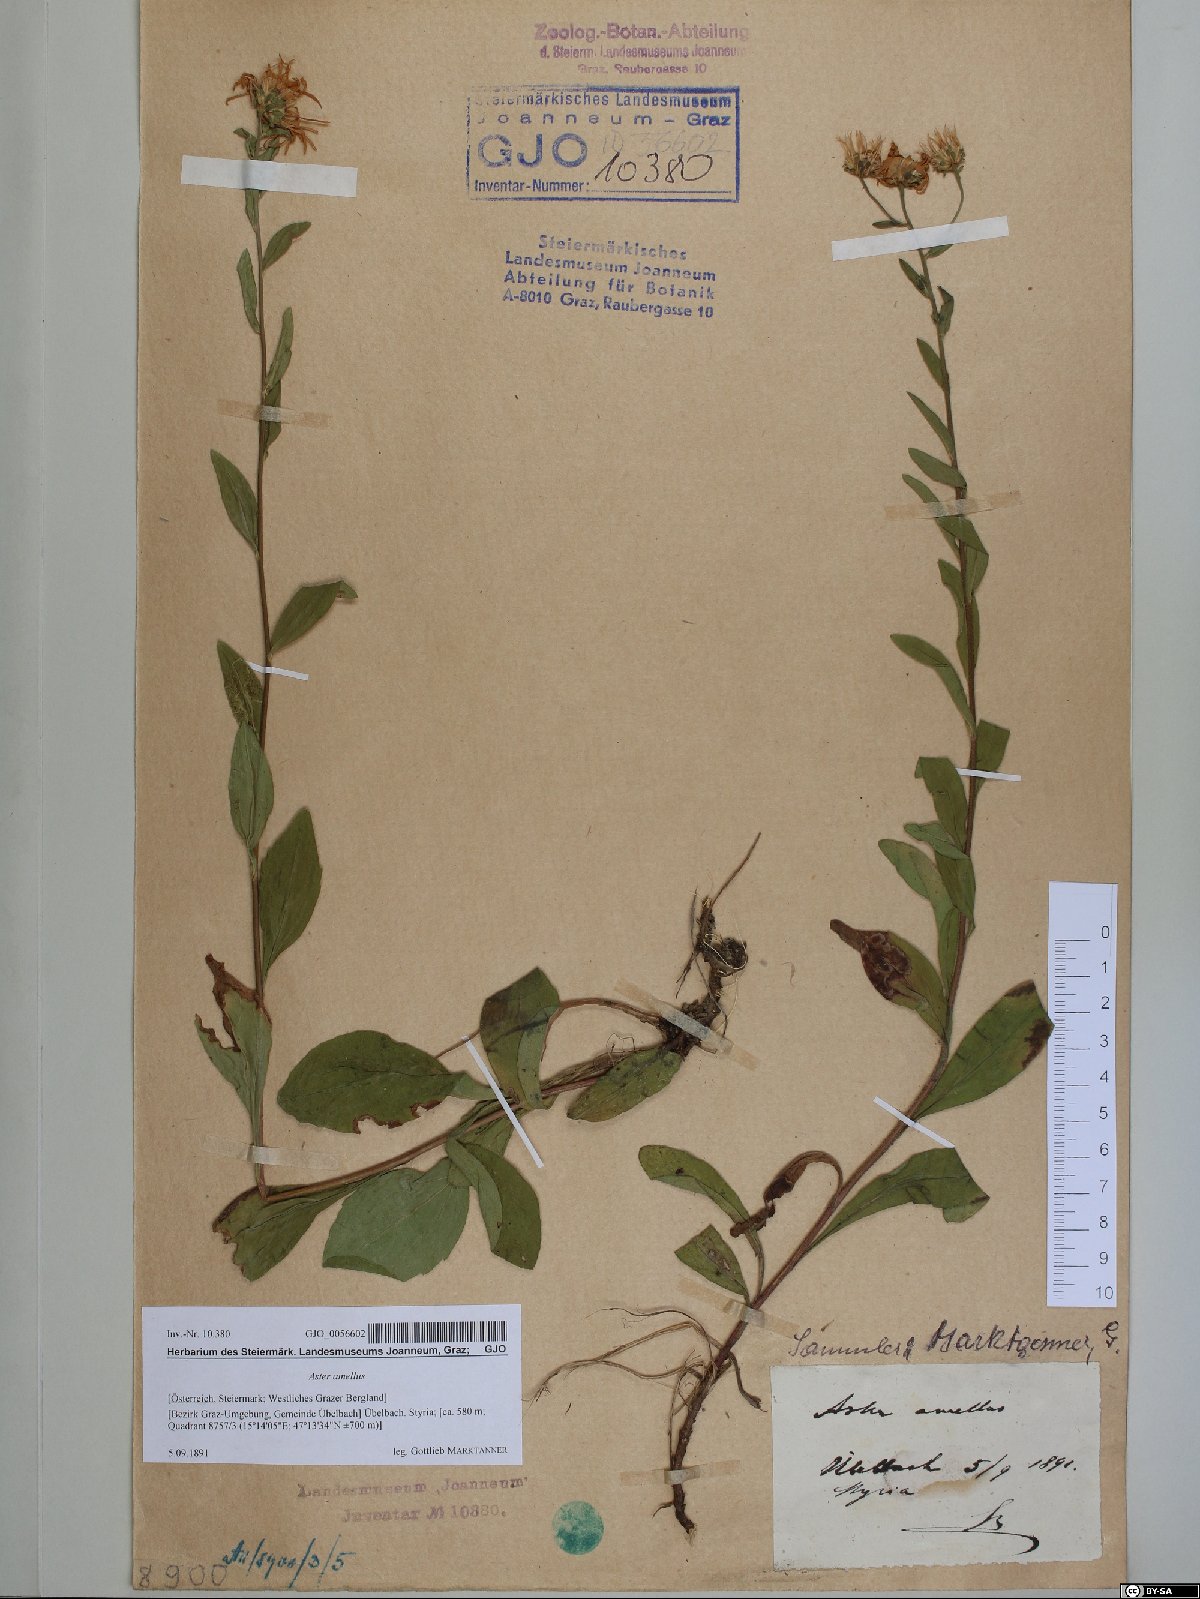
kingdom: Plantae
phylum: Tracheophyta
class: Magnoliopsida
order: Asterales
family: Asteraceae
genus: Aster
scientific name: Aster amellus
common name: European michaelmas daisy
